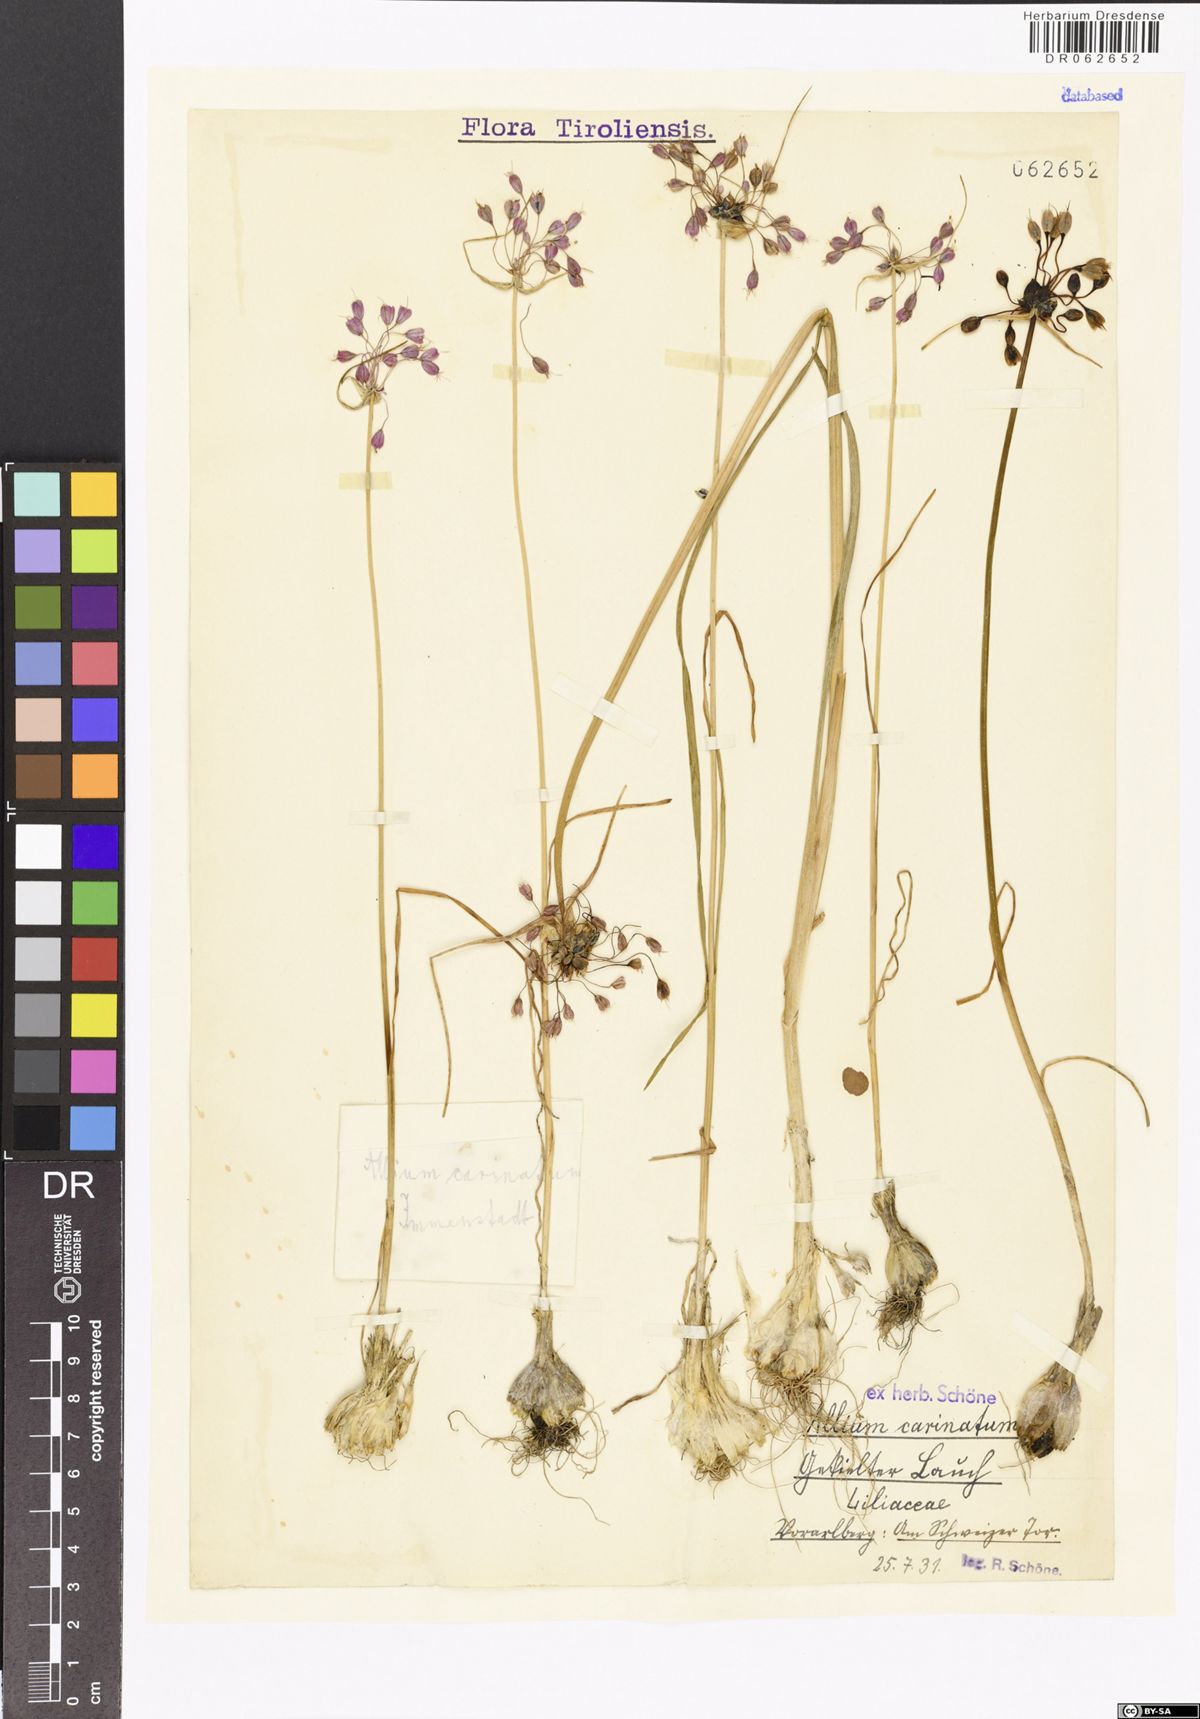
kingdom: Plantae
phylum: Tracheophyta
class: Liliopsida
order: Asparagales
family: Amaryllidaceae
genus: Allium
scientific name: Allium carinatum
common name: Keeled garlic
